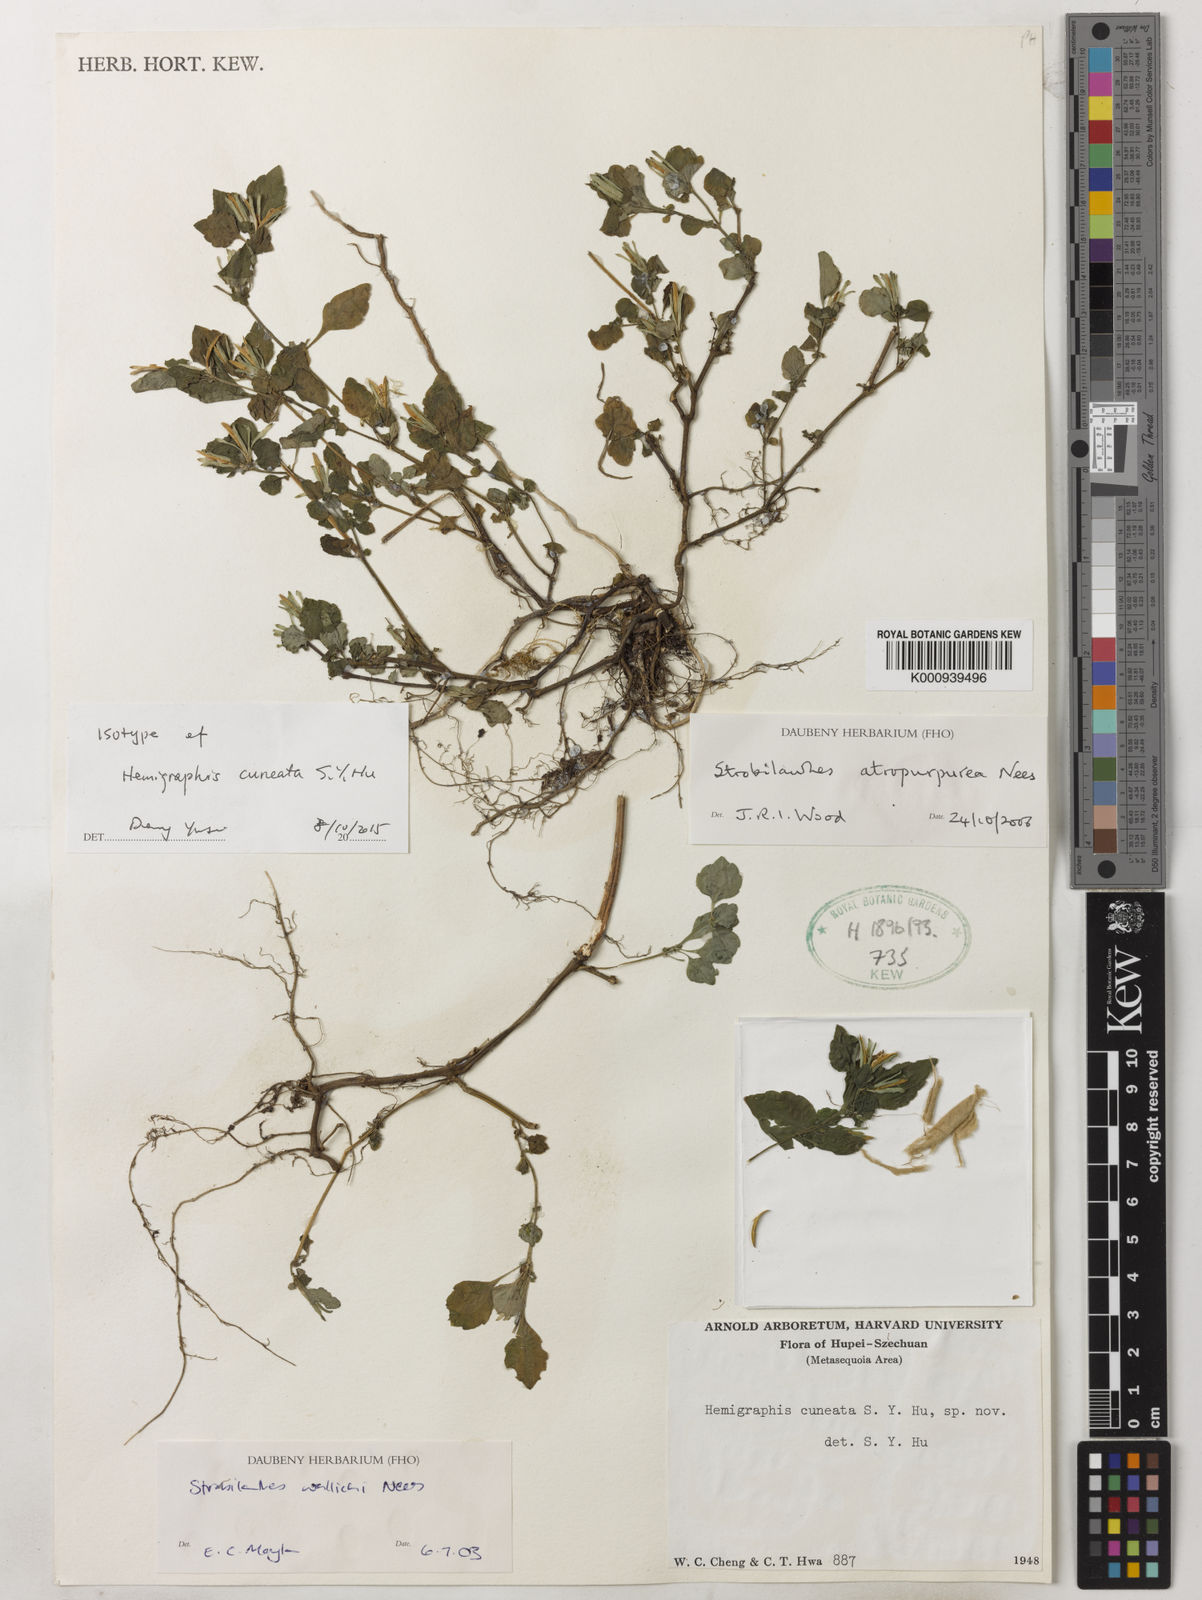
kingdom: Plantae
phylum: Tracheophyta
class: Magnoliopsida
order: Lamiales
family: Acanthaceae
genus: Hemigraphis
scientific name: Hemigraphis
